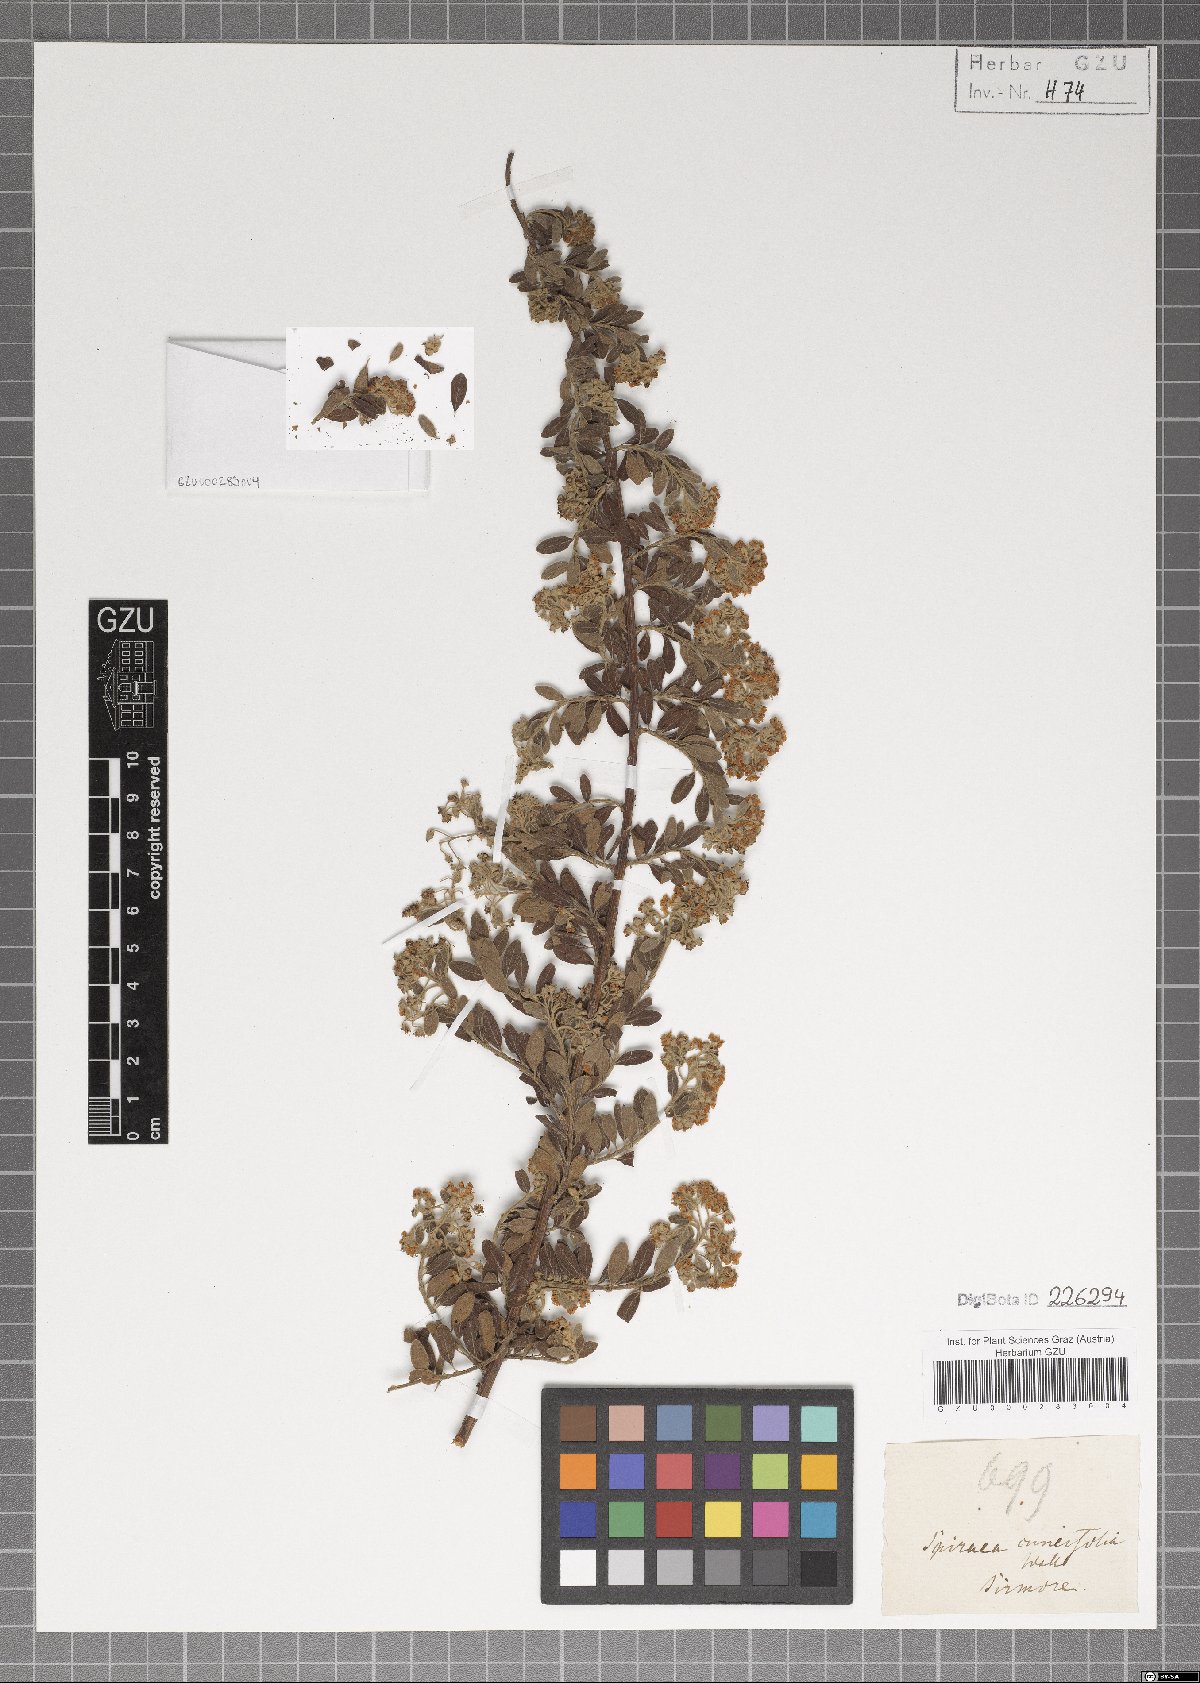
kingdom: Plantae
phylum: Tracheophyta
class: Magnoliopsida
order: Rosales
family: Rosaceae
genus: Spiraea
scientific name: Spiraea canescens
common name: Himalayan spiraea
